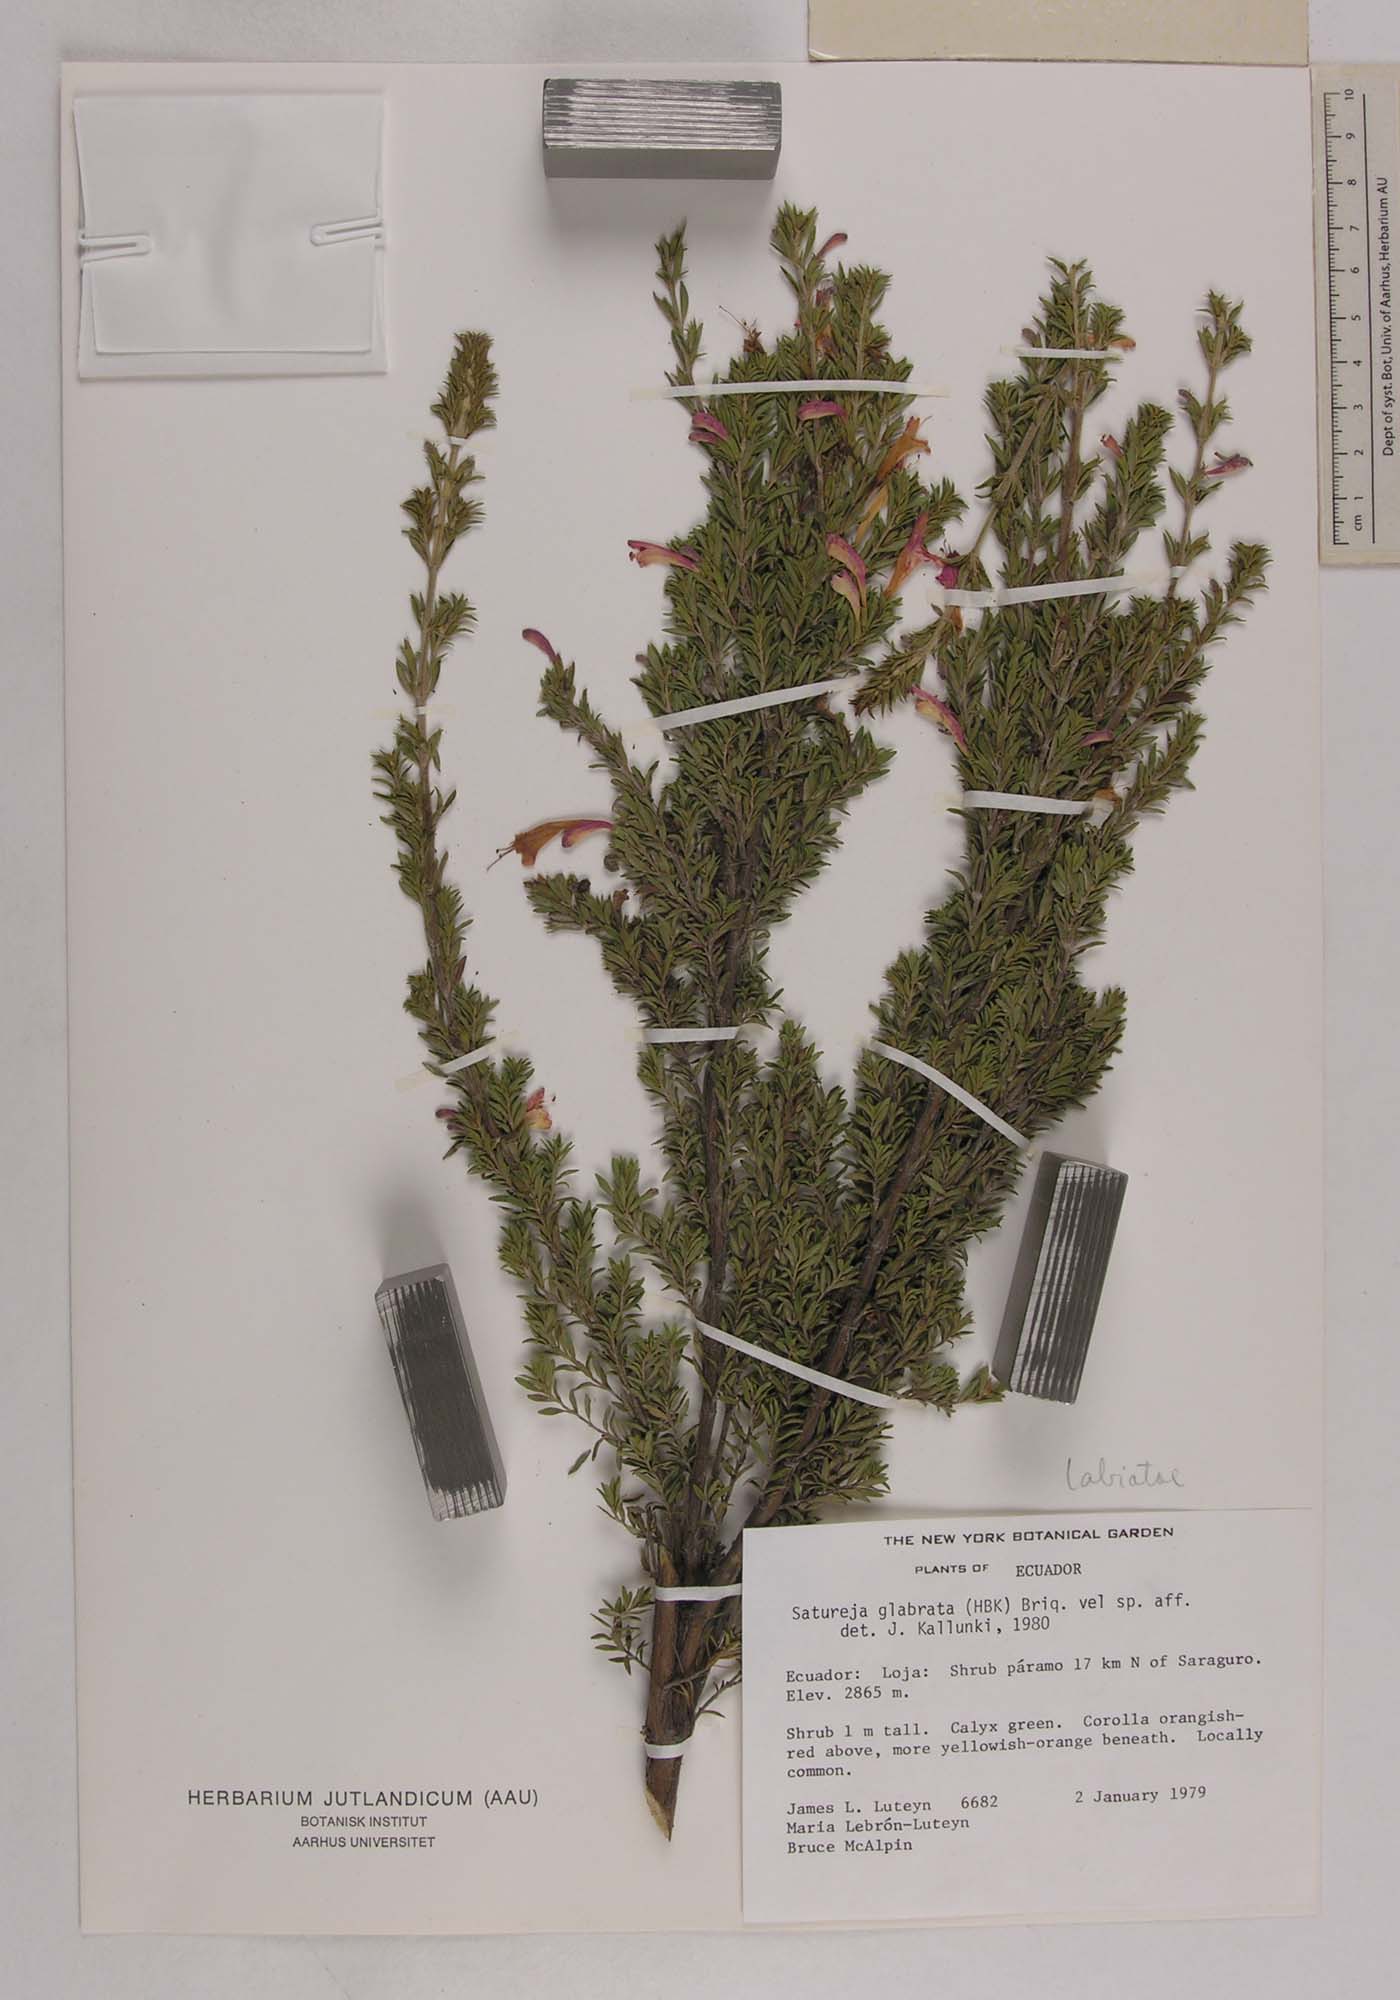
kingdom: Plantae
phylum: Tracheophyta
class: Magnoliopsida
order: Lamiales
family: Lamiaceae
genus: Clinopodium
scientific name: Clinopodium taxifolium
